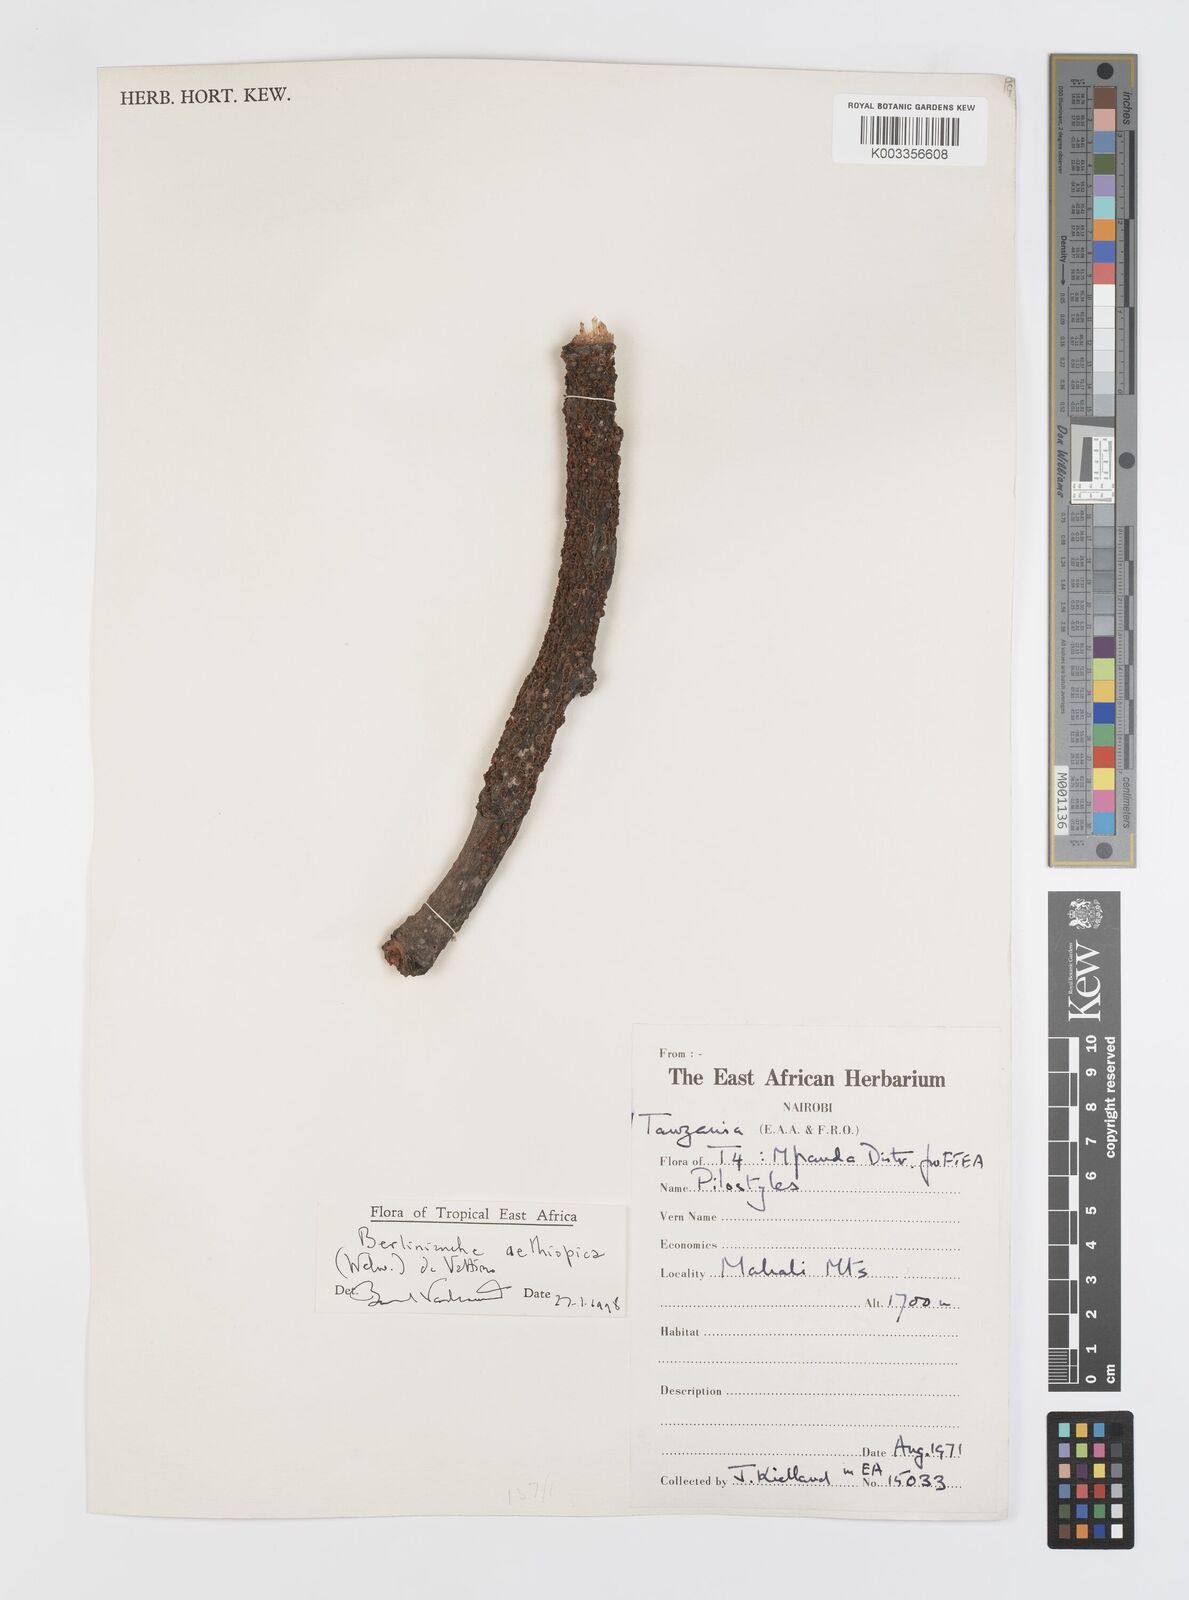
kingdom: Plantae
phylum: Tracheophyta
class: Magnoliopsida
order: Cucurbitales
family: Apodanthaceae
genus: Pilostyles
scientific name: Pilostyles aethiopica
